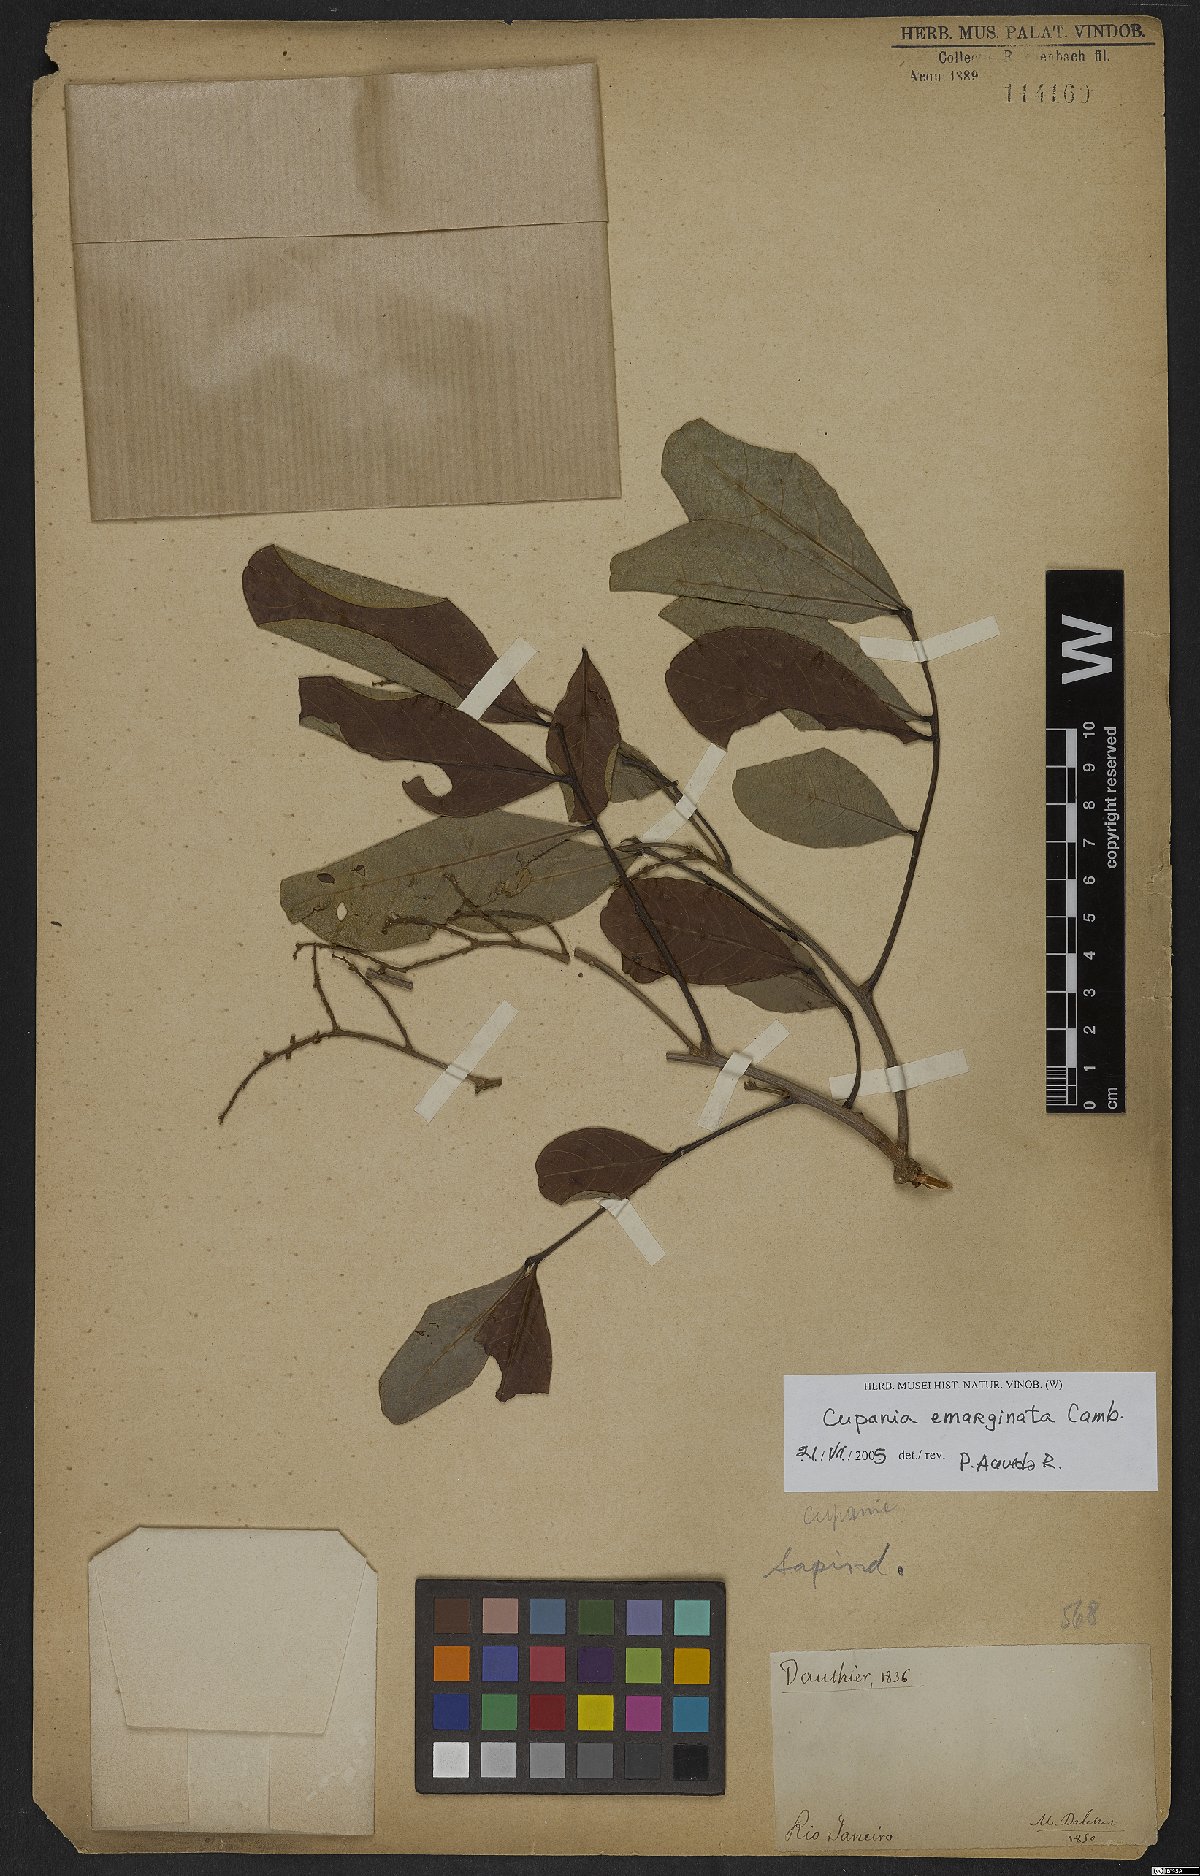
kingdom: Plantae
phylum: Tracheophyta
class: Magnoliopsida
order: Sapindales
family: Sapindaceae
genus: Cupania
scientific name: Cupania emarginata
